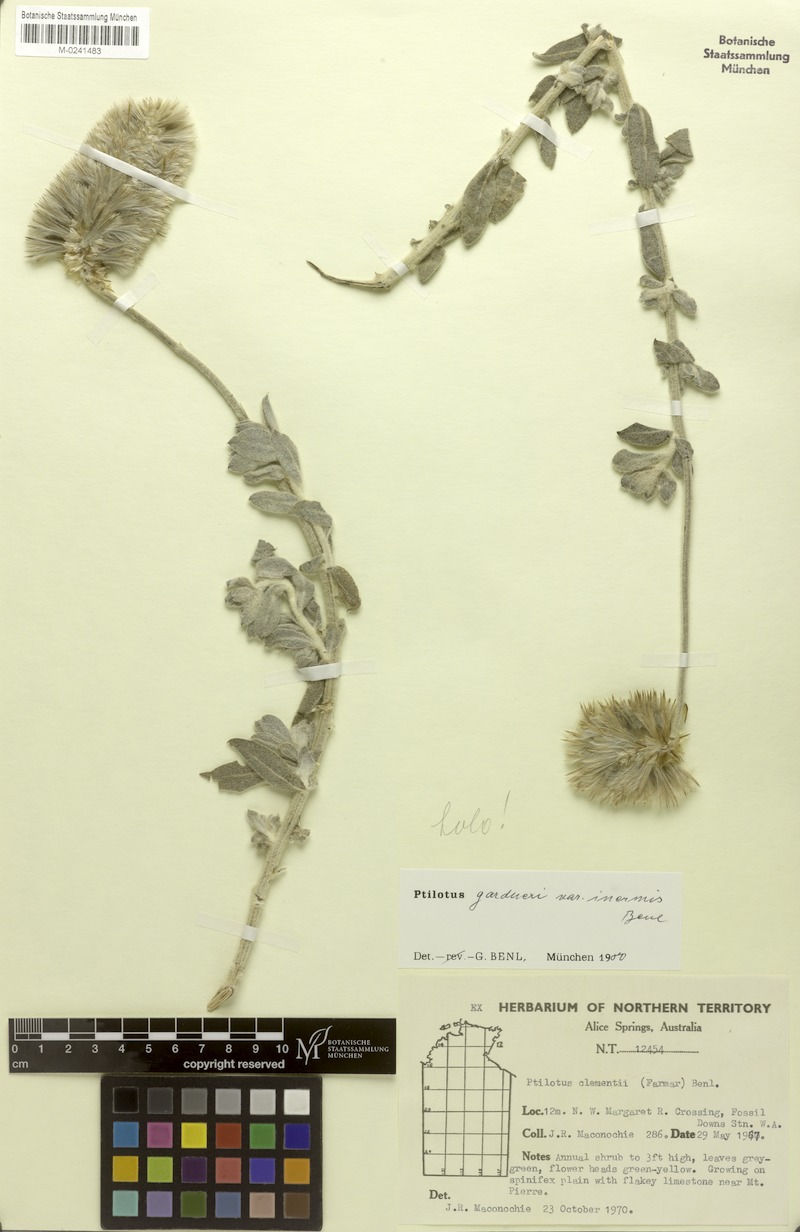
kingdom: Plantae
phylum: Tracheophyta
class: Magnoliopsida
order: Caryophyllales
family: Amaranthaceae
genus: Ptilotus
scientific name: Ptilotus gardneri
